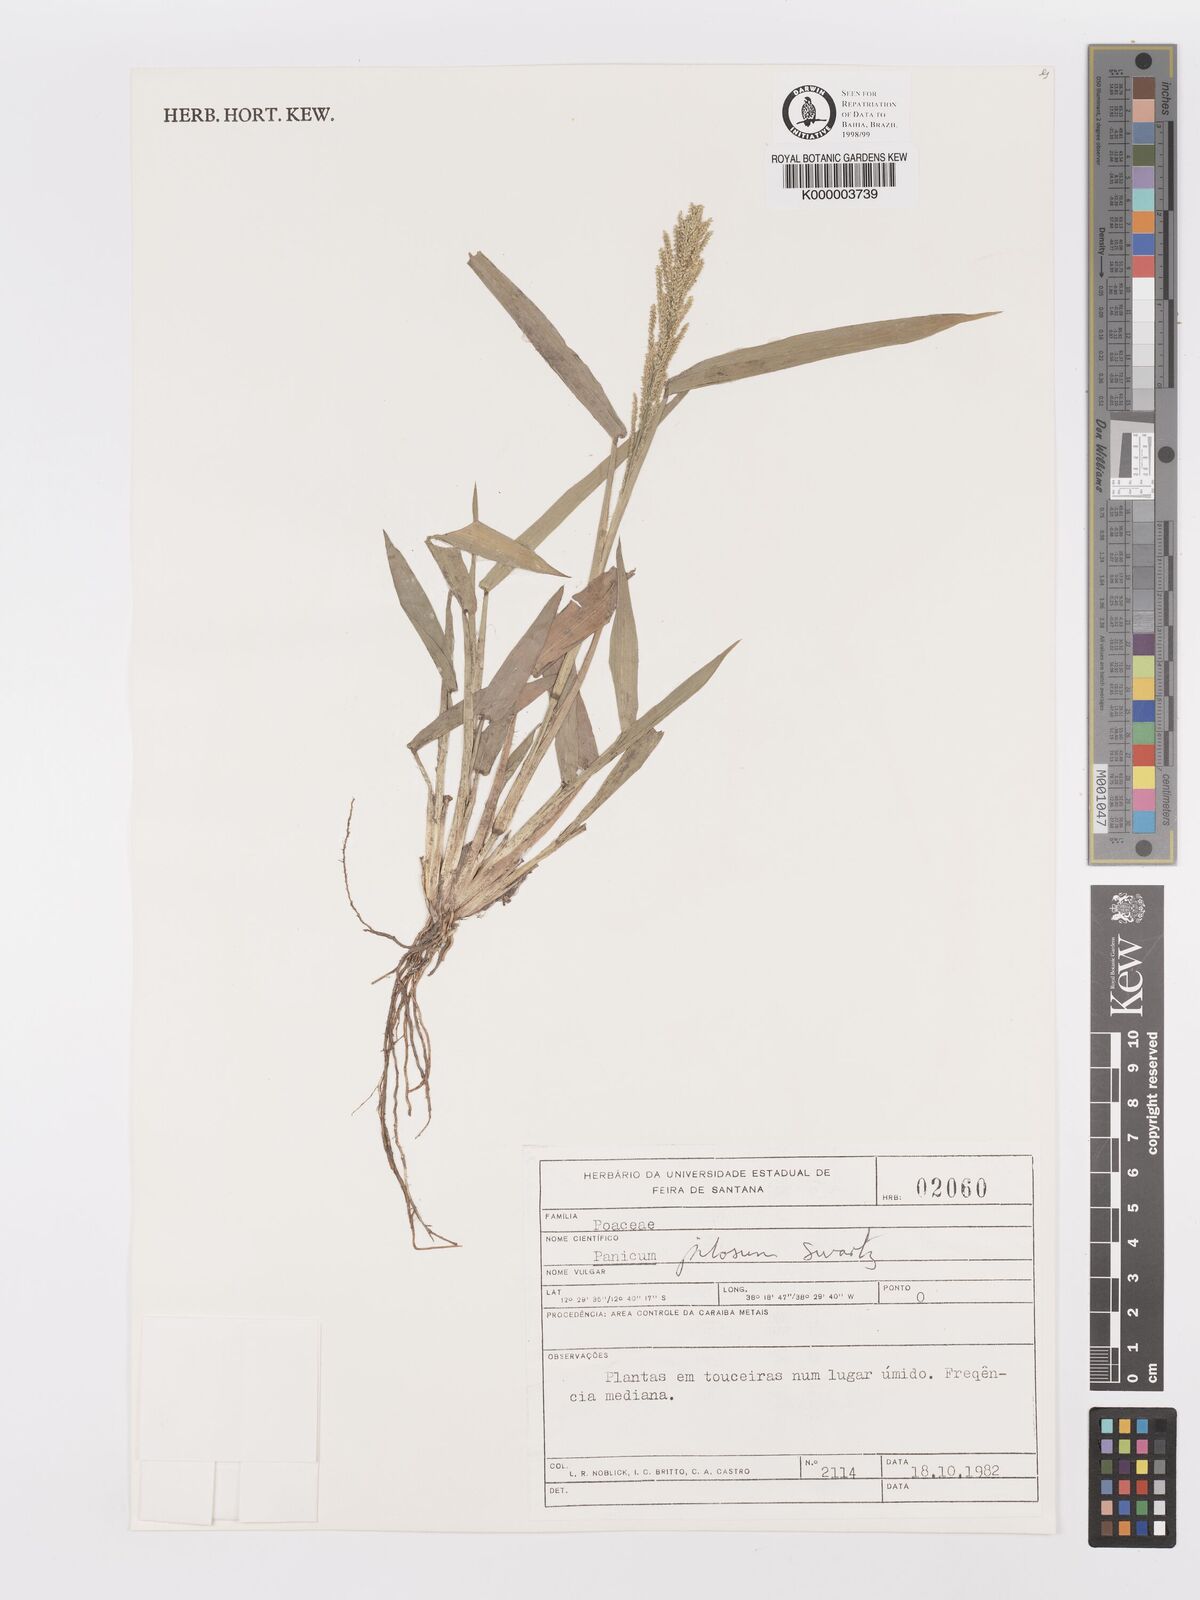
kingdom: Plantae
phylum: Tracheophyta
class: Liliopsida
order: Poales
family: Poaceae
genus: Rugoloa
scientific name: Rugoloa pilosa
